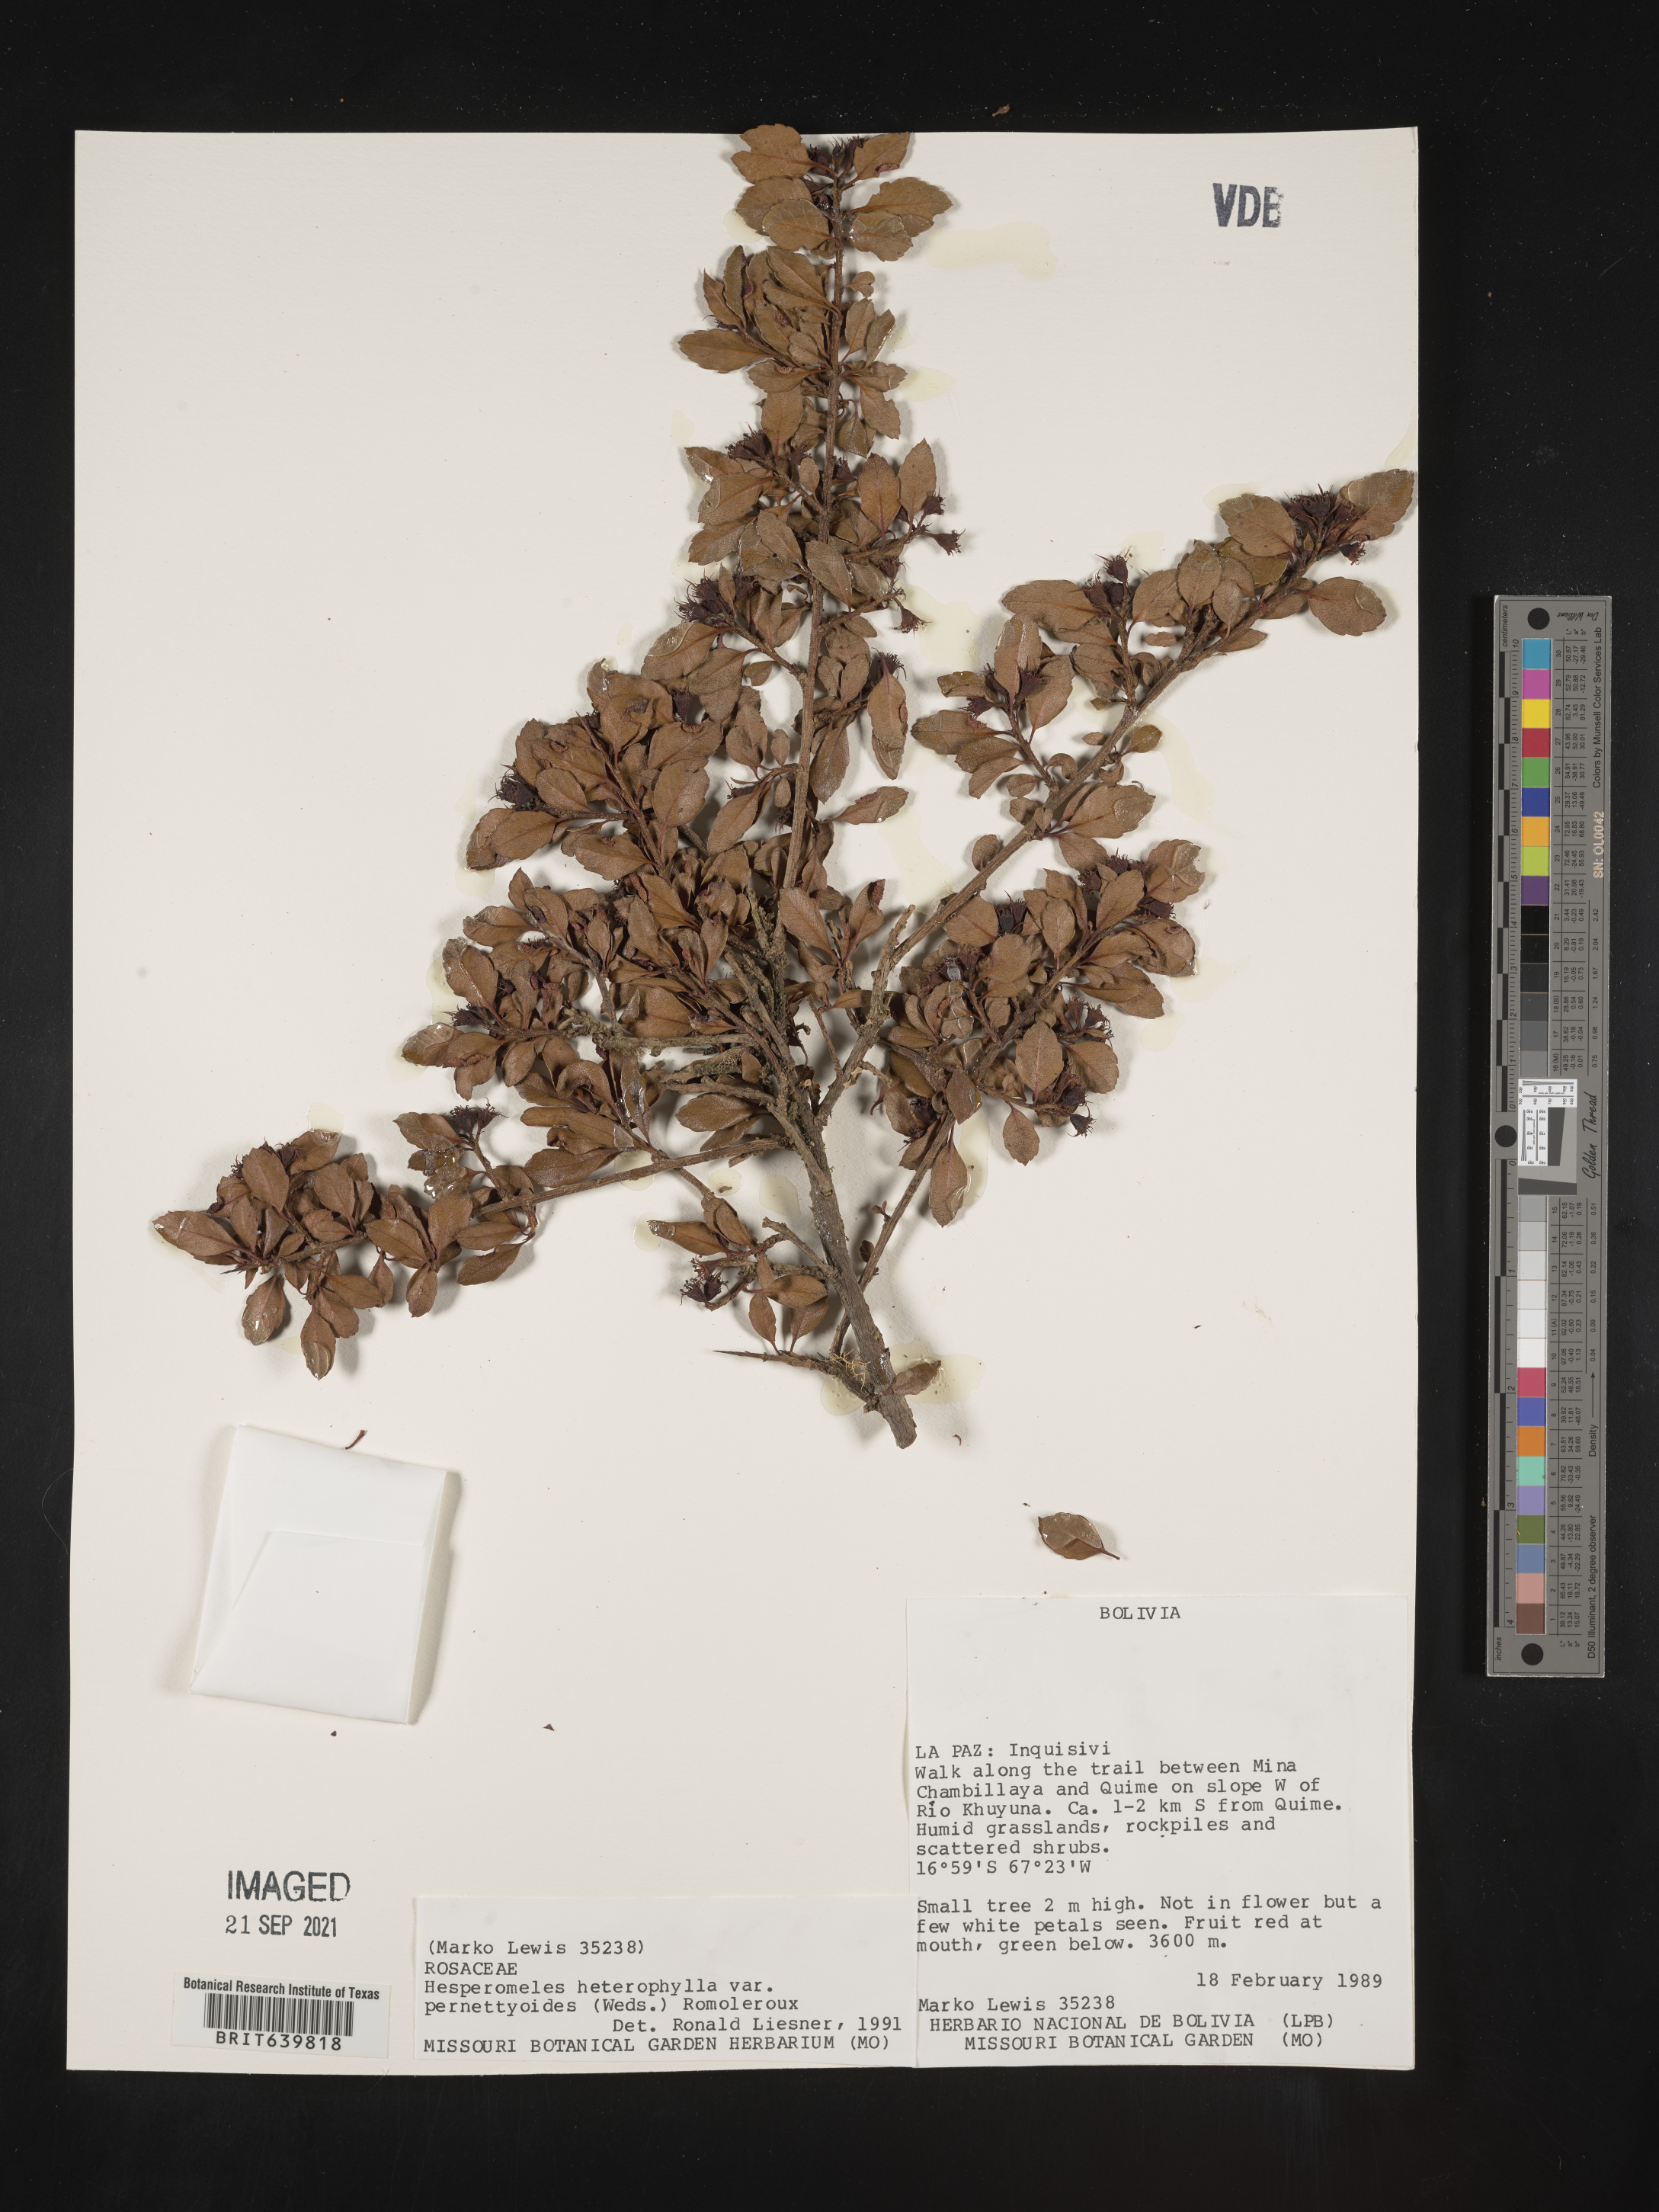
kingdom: Plantae
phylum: Tracheophyta
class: Magnoliopsida
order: Rosales
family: Rosaceae
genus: Hesperomeles
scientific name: Hesperomeles
